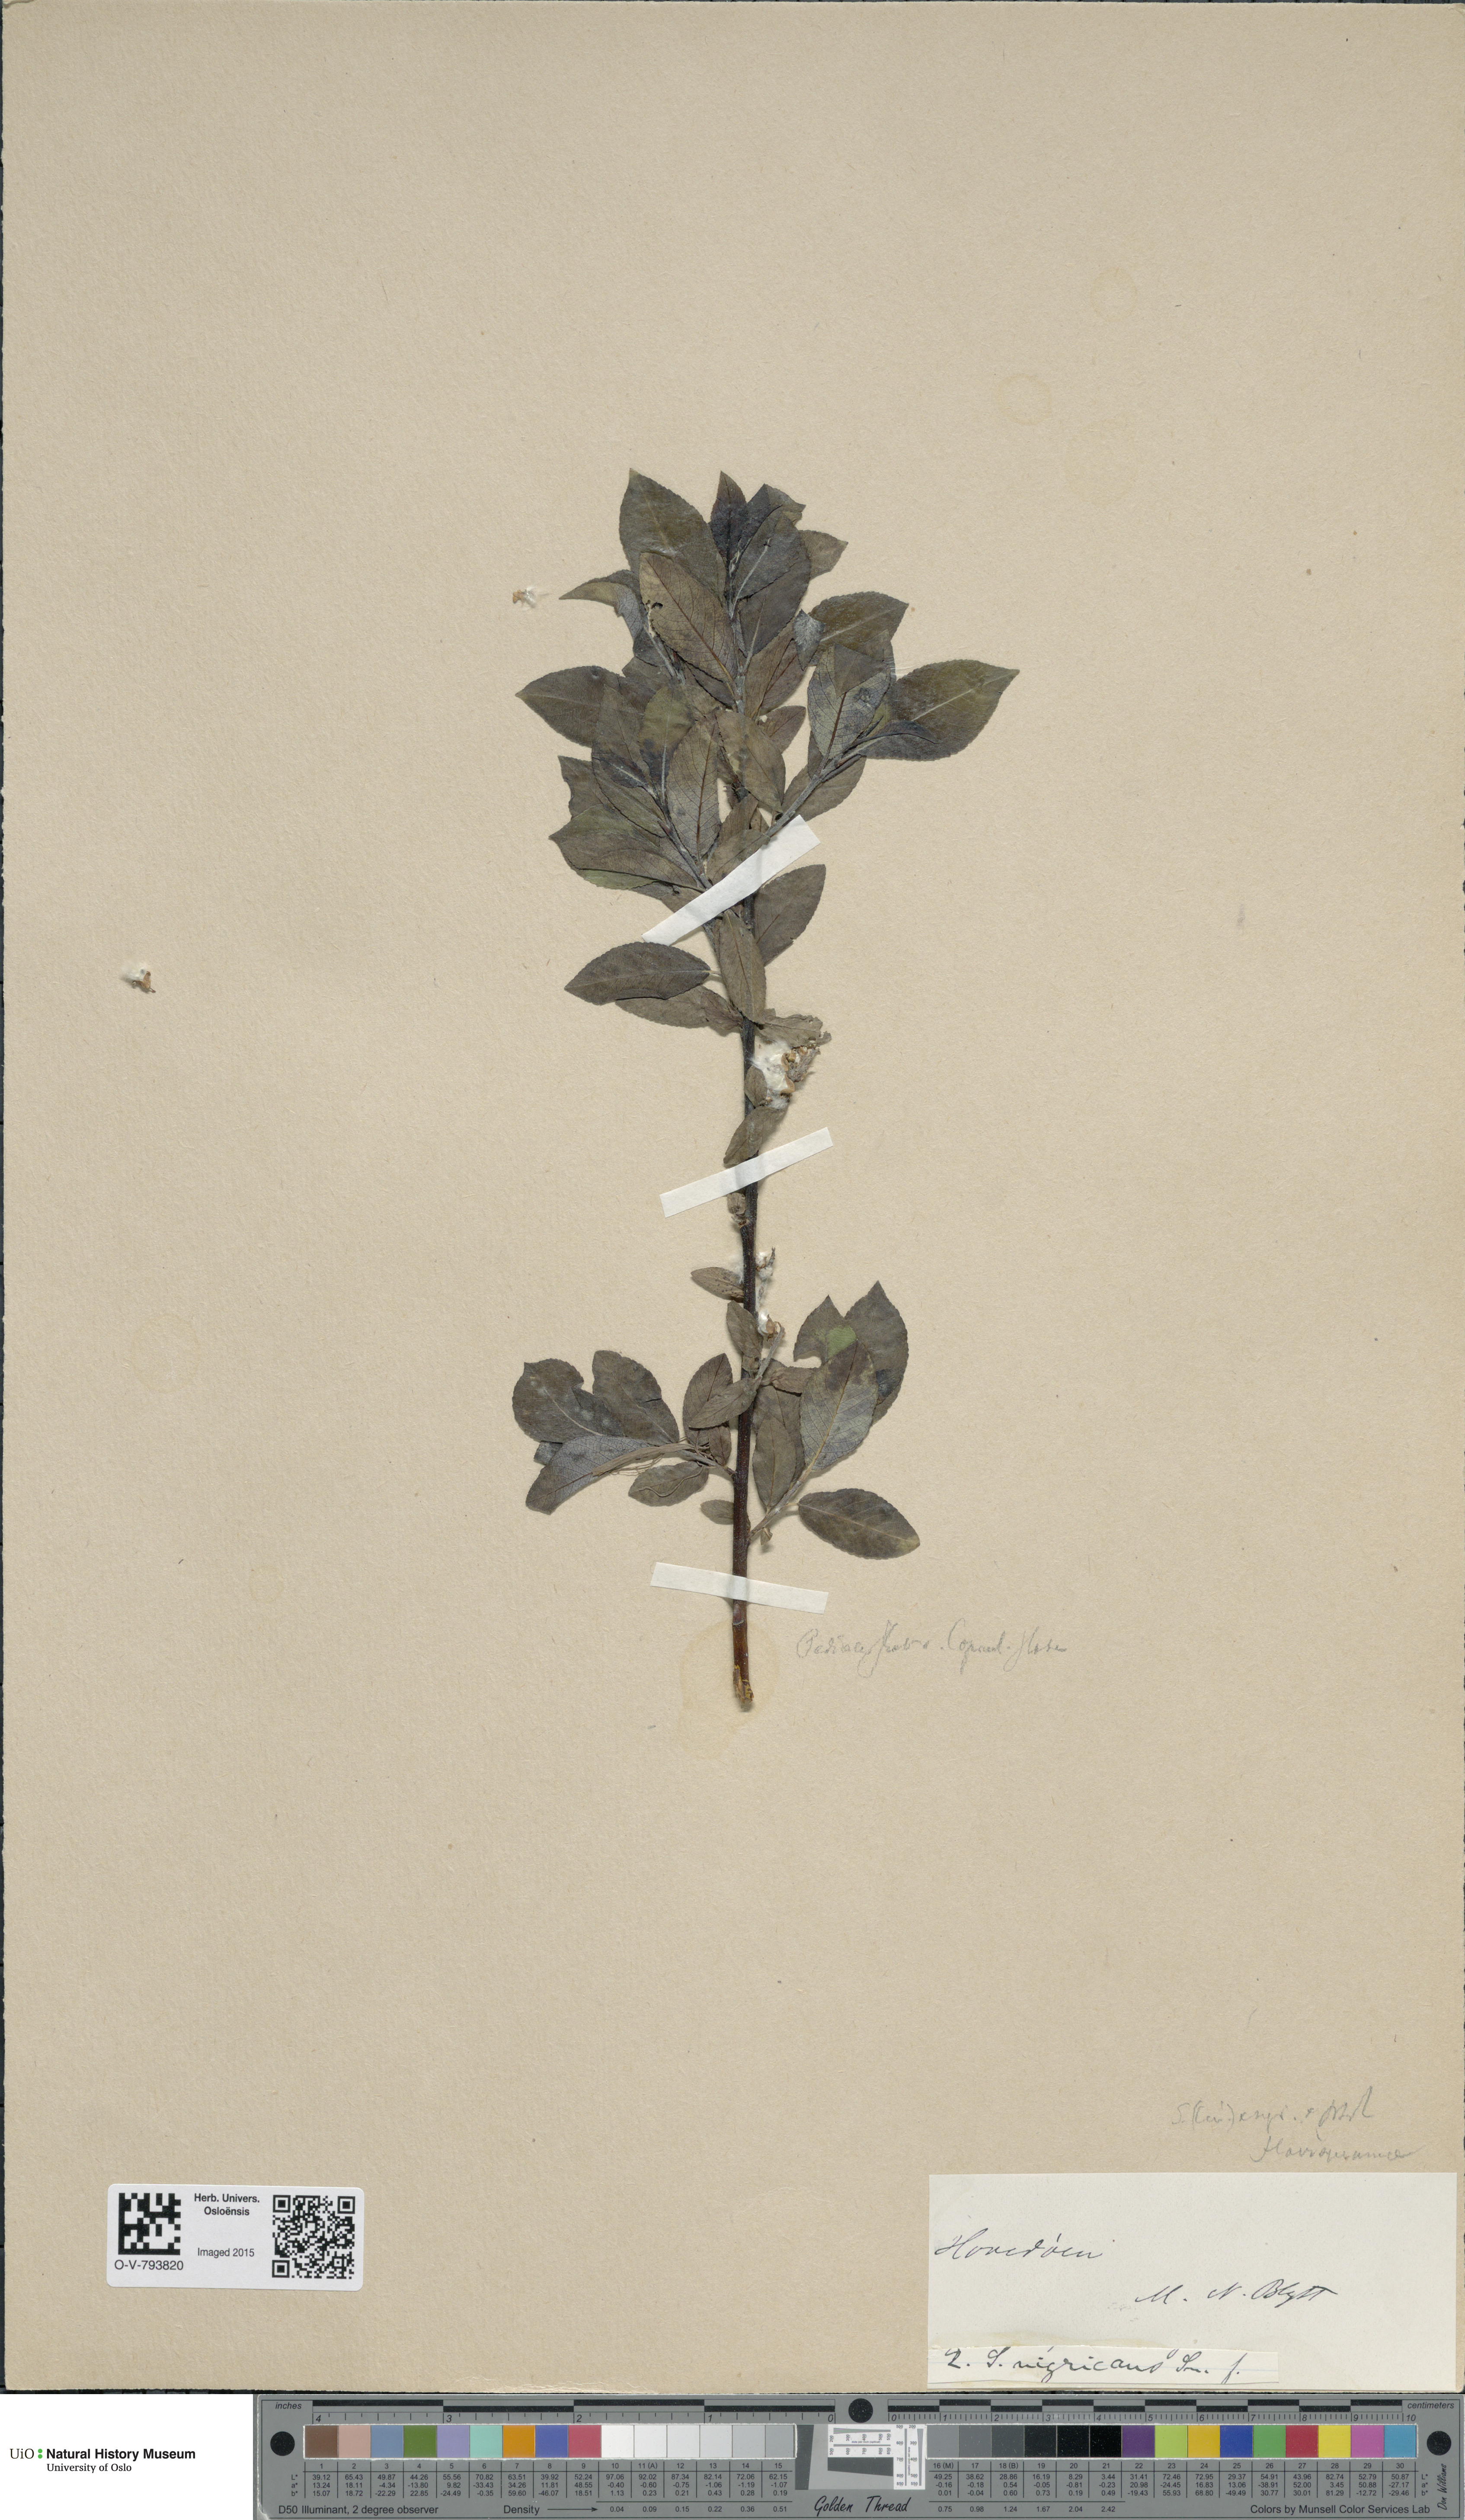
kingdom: Plantae
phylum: Tracheophyta
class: Magnoliopsida
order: Malpighiales
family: Salicaceae
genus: Salix
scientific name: Salix myrsinifolia
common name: Dark-leaved willow
